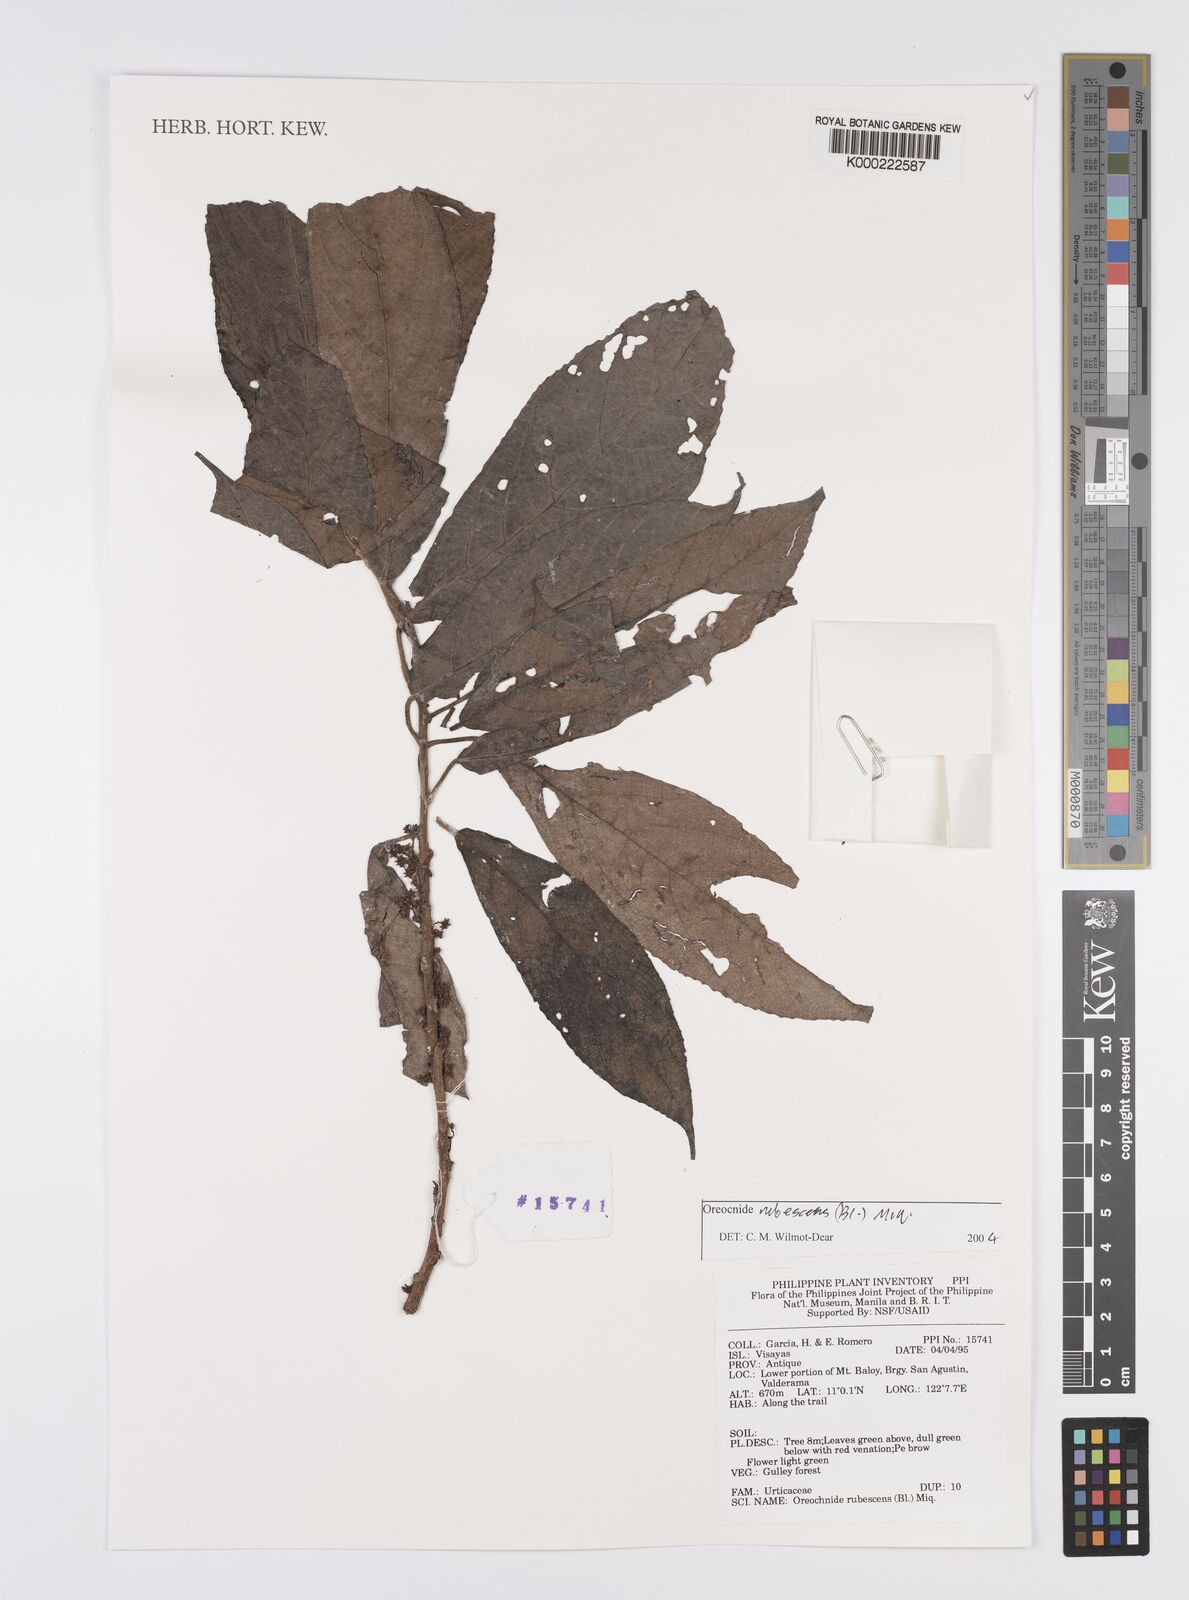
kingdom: Plantae
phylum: Tracheophyta
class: Magnoliopsida
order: Rosales
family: Urticaceae
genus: Oreocnide
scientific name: Oreocnide rubescens
